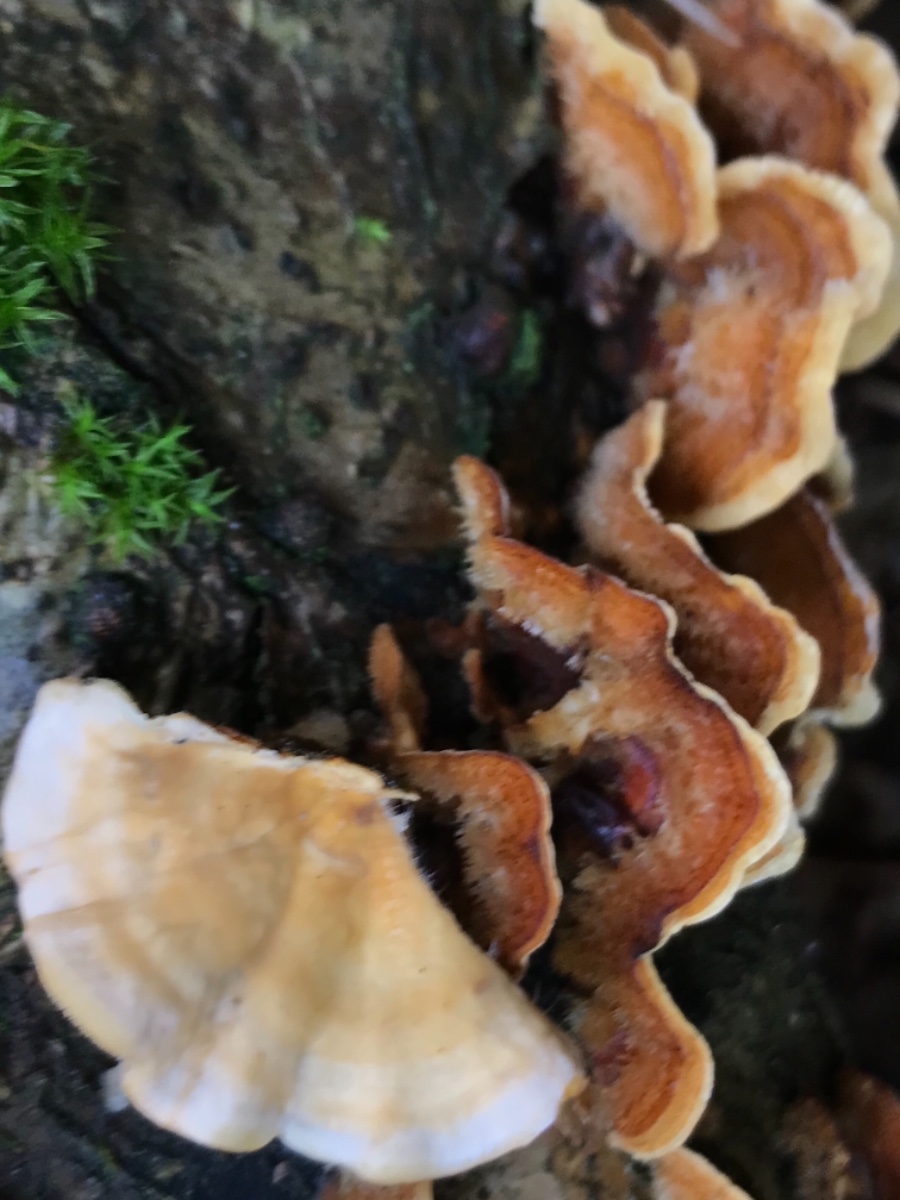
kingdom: Fungi
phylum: Basidiomycota
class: Agaricomycetes
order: Russulales
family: Stereaceae
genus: Stereum
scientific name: Stereum hirsutum
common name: håret lædersvamp
